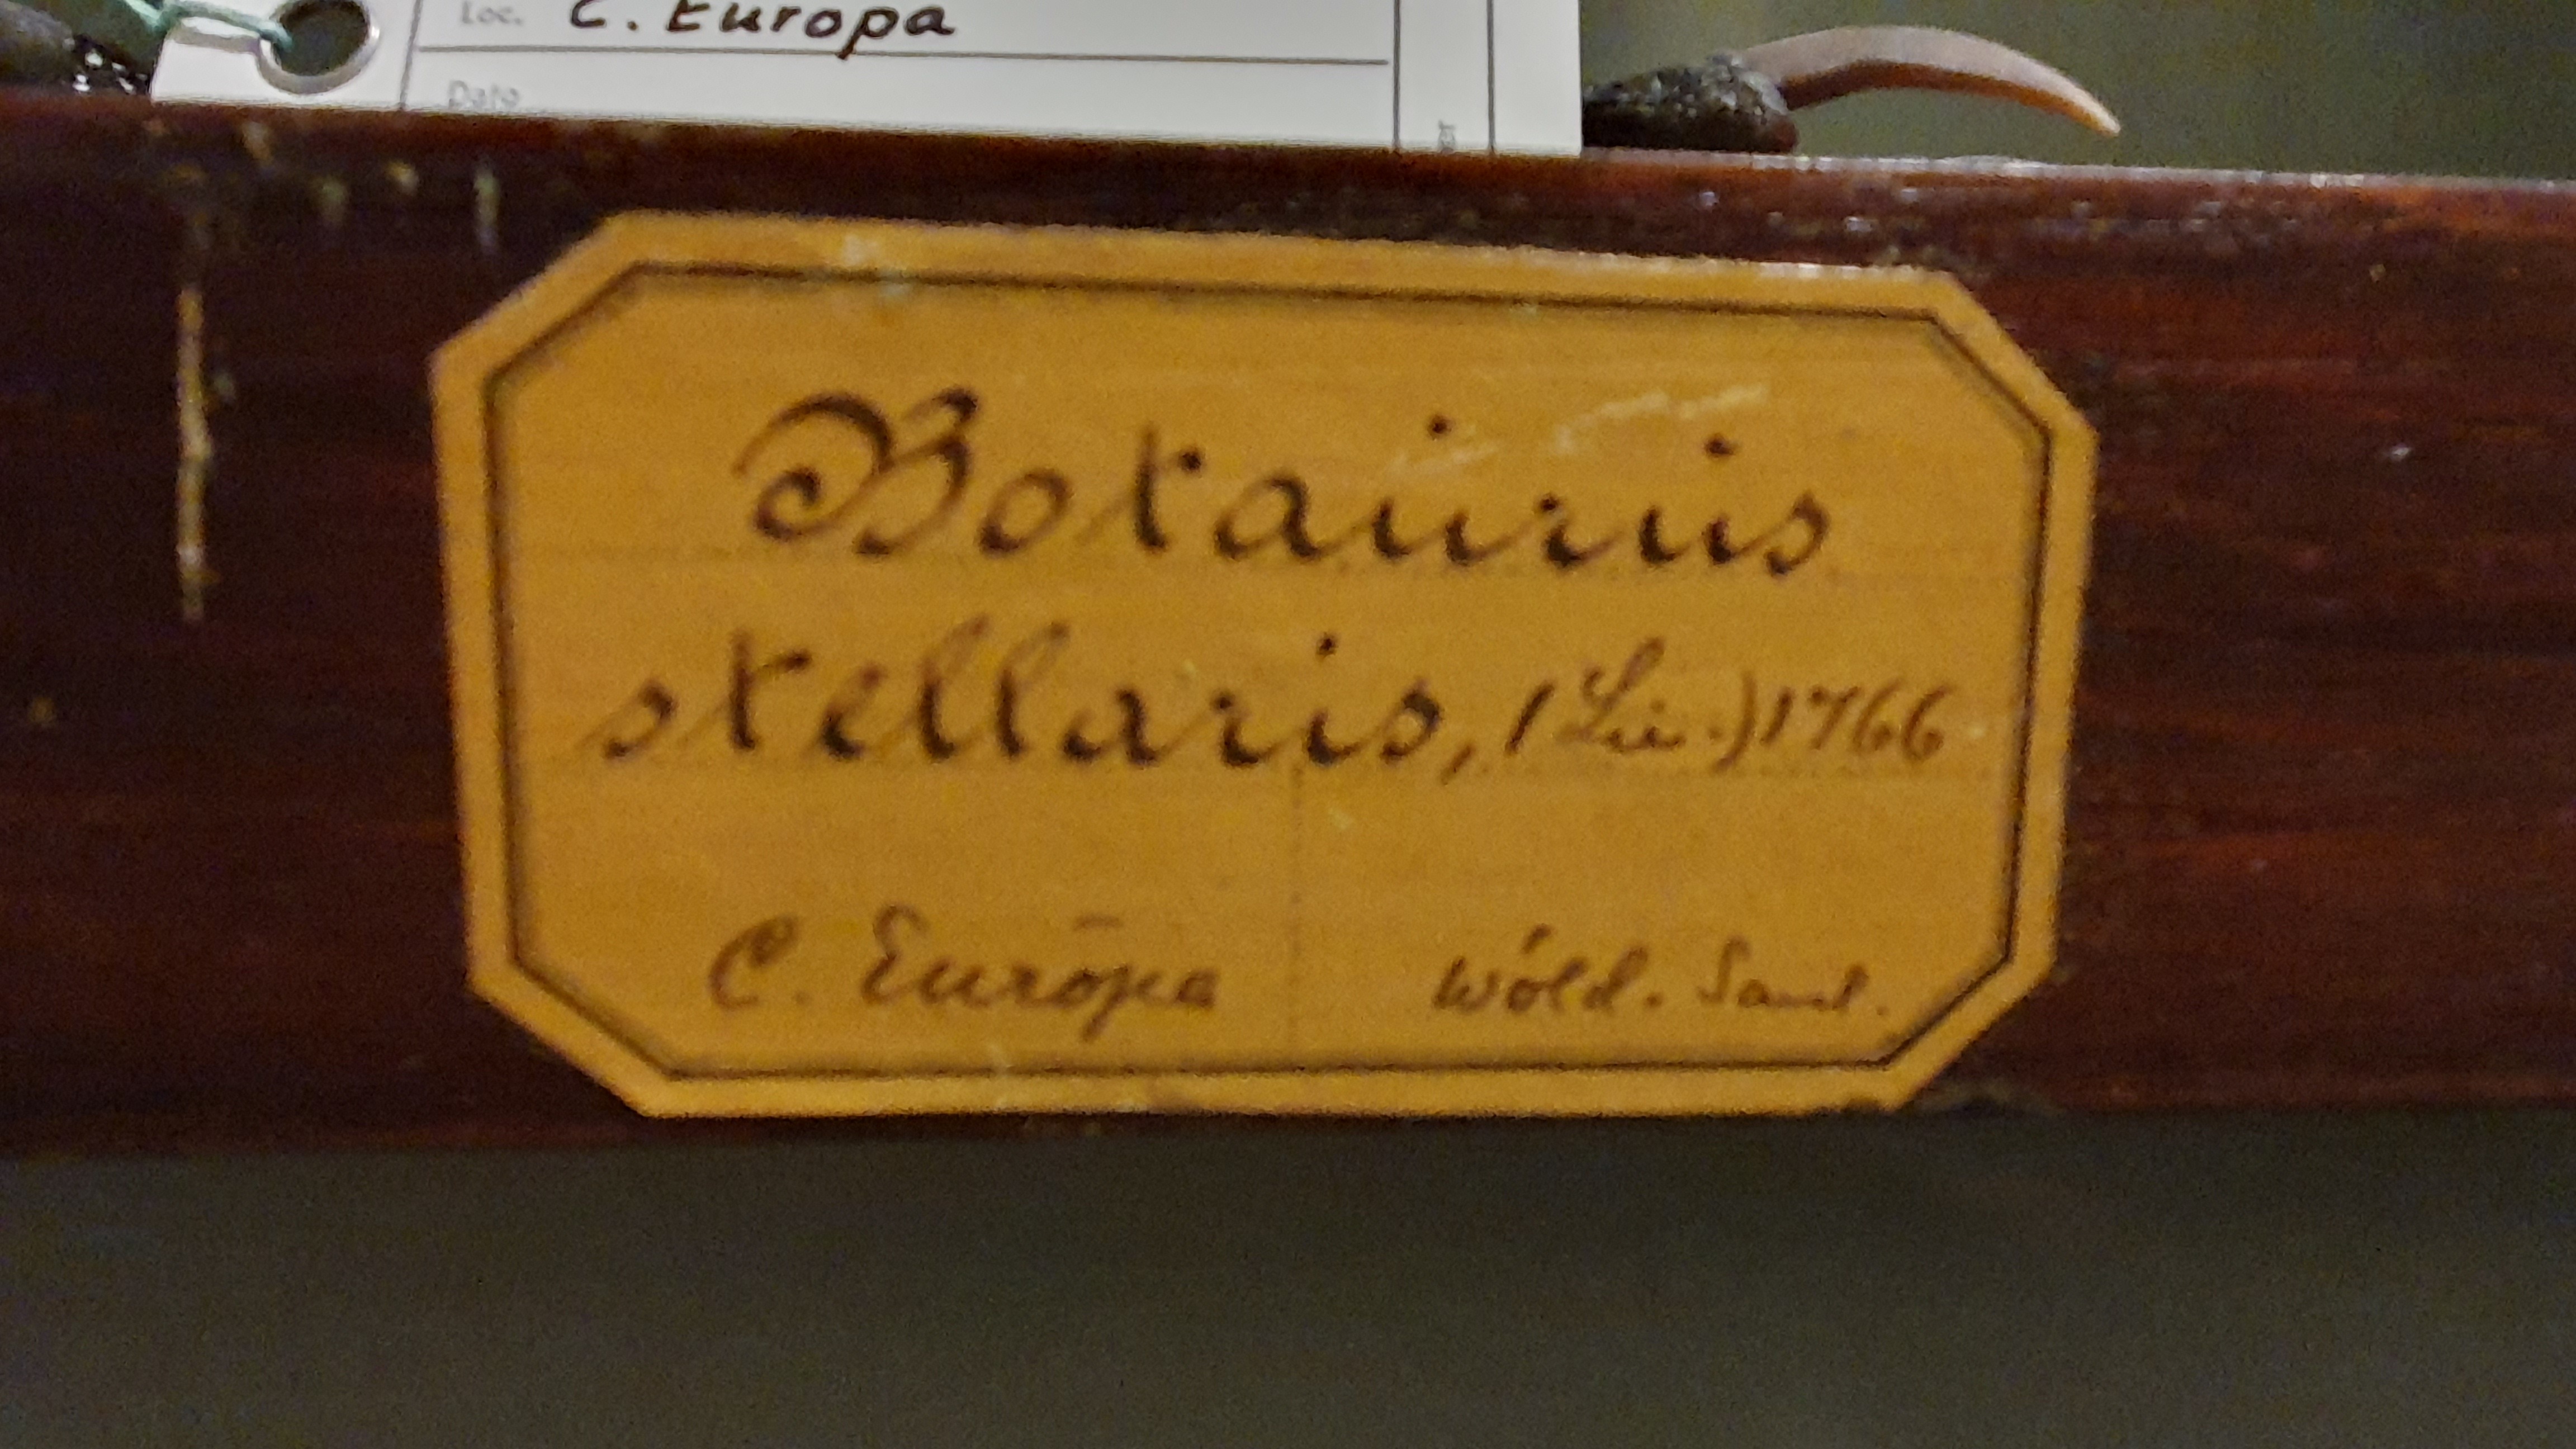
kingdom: Animalia
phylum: Chordata
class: Aves
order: Pelecaniformes
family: Ardeidae
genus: Botaurus
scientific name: Botaurus stellaris
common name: Eurasian bittern
